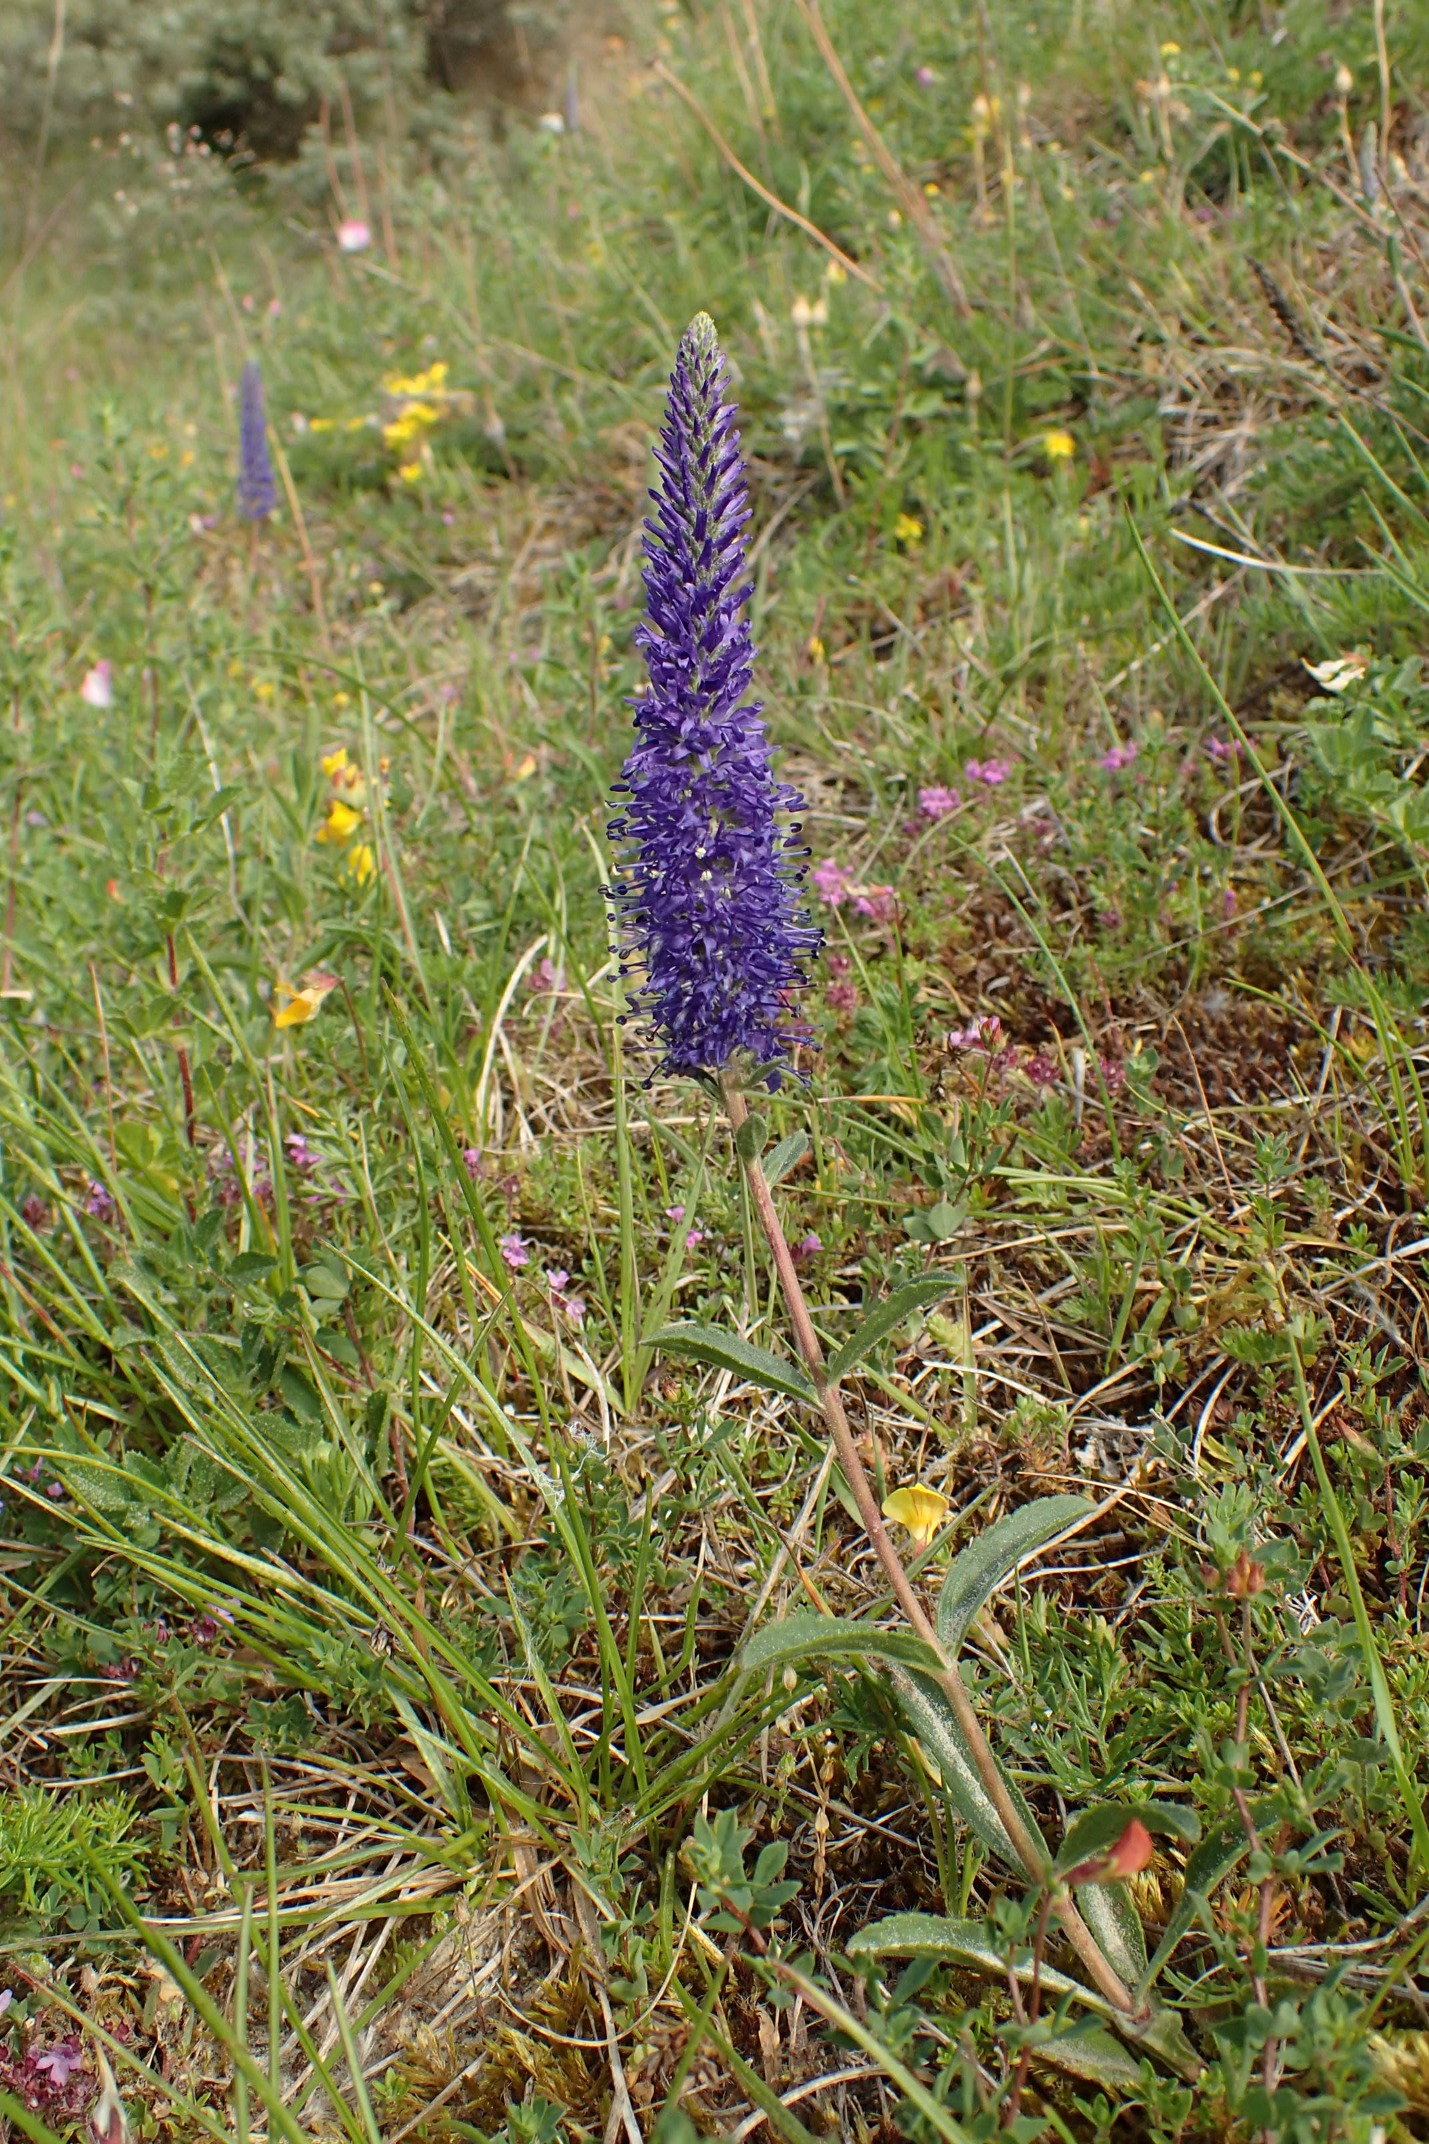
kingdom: Plantae
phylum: Tracheophyta
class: Magnoliopsida
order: Lamiales
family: Plantaginaceae
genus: Veronica
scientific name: Veronica spicata
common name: Aks-ærenpris
